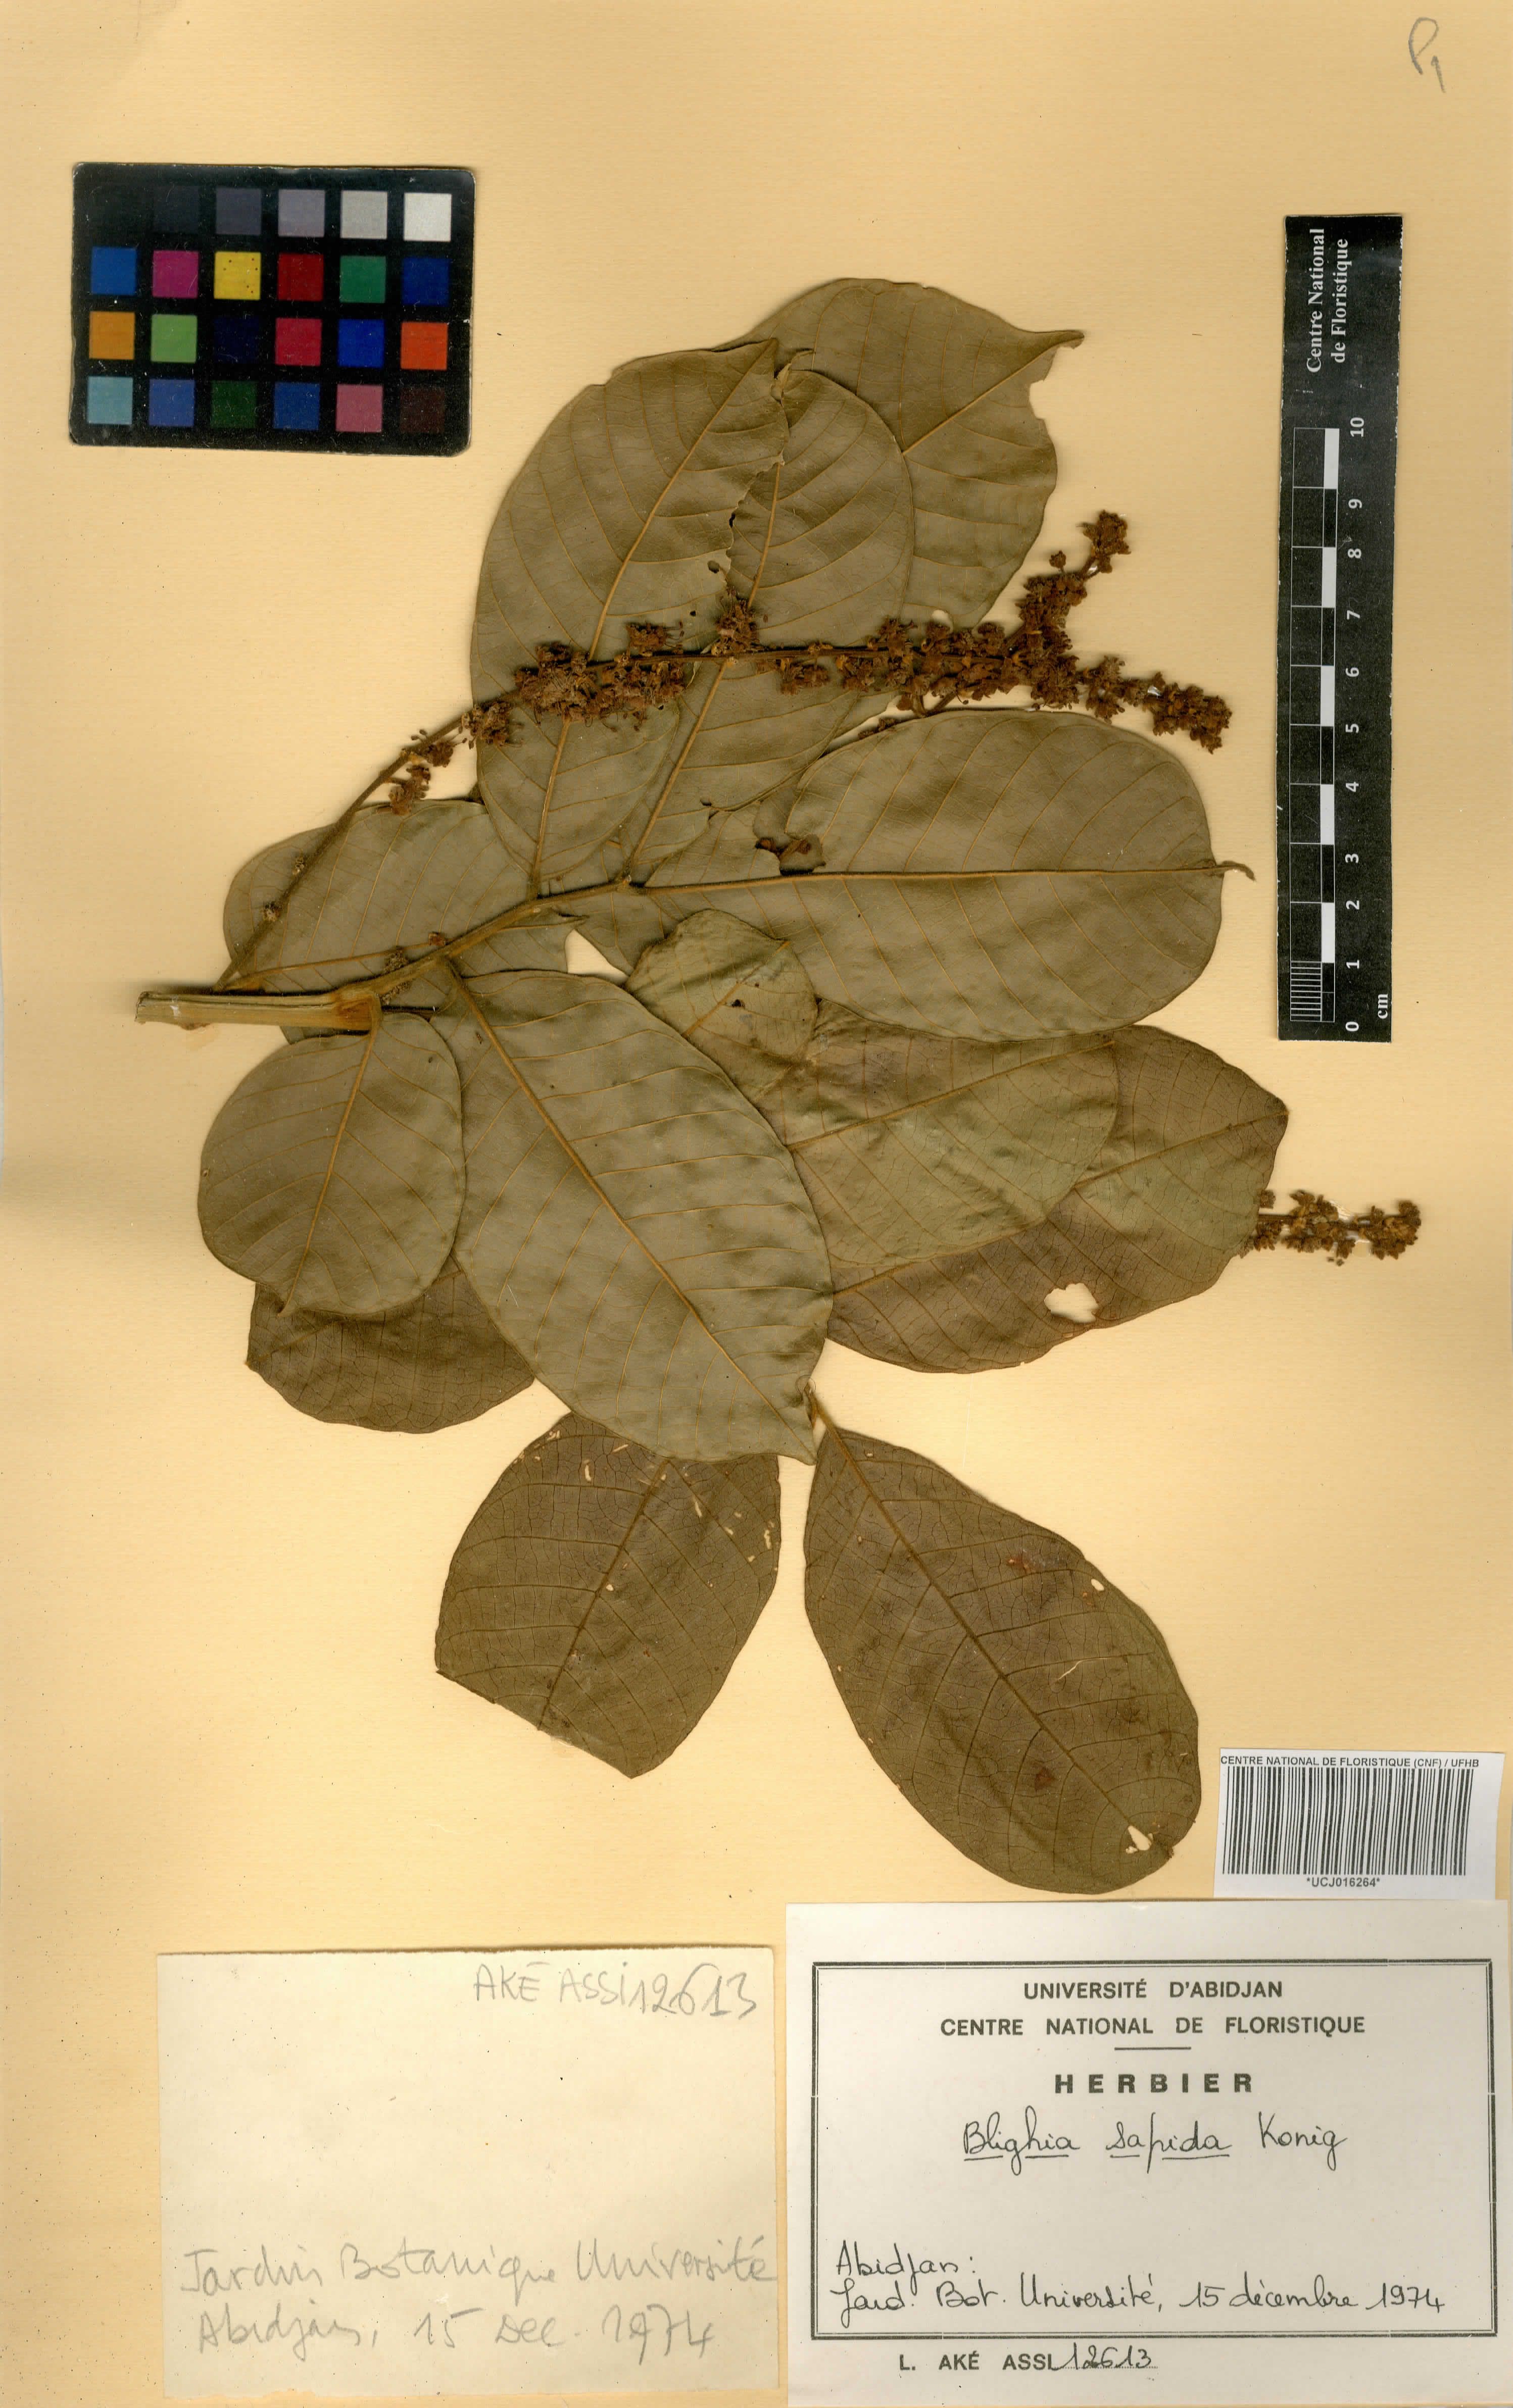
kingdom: Plantae
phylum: Tracheophyta
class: Magnoliopsida
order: Sapindales
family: Sapindaceae
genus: Blighia
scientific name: Blighia sapida
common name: Akee
